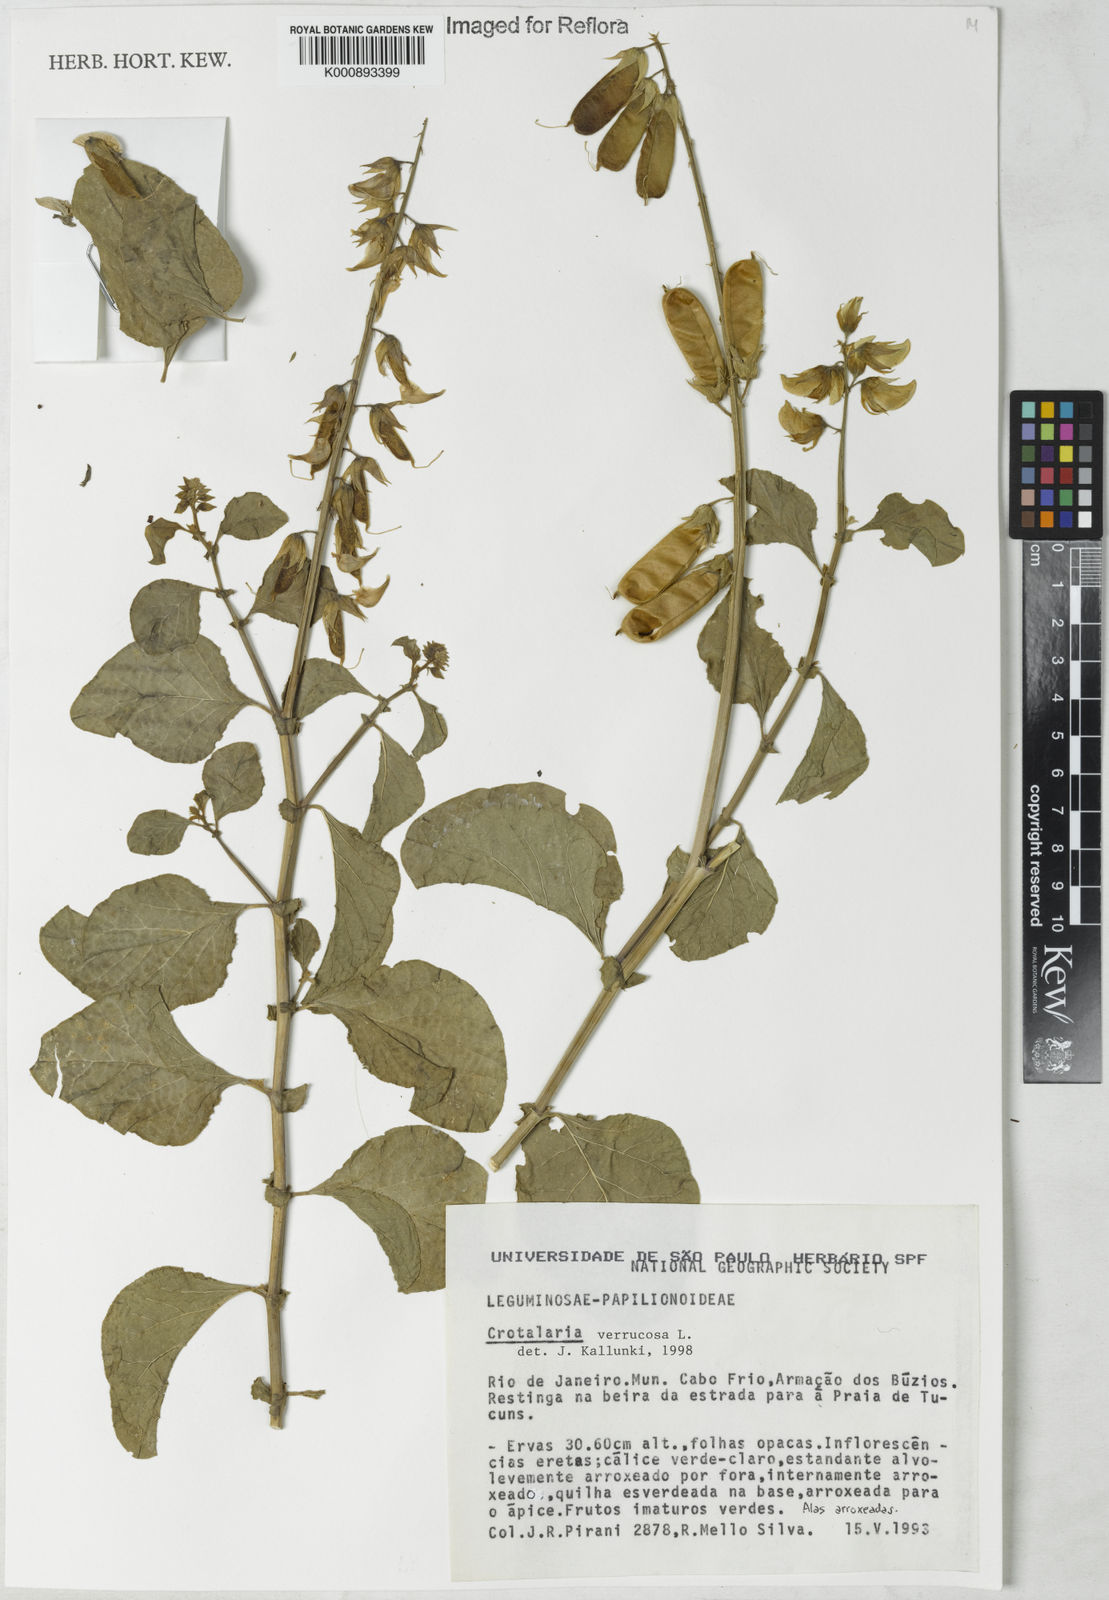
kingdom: Plantae
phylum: Tracheophyta
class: Magnoliopsida
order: Fabales
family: Fabaceae
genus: Crotalaria
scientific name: Crotalaria verrucosa
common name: Blue rattlesnake
